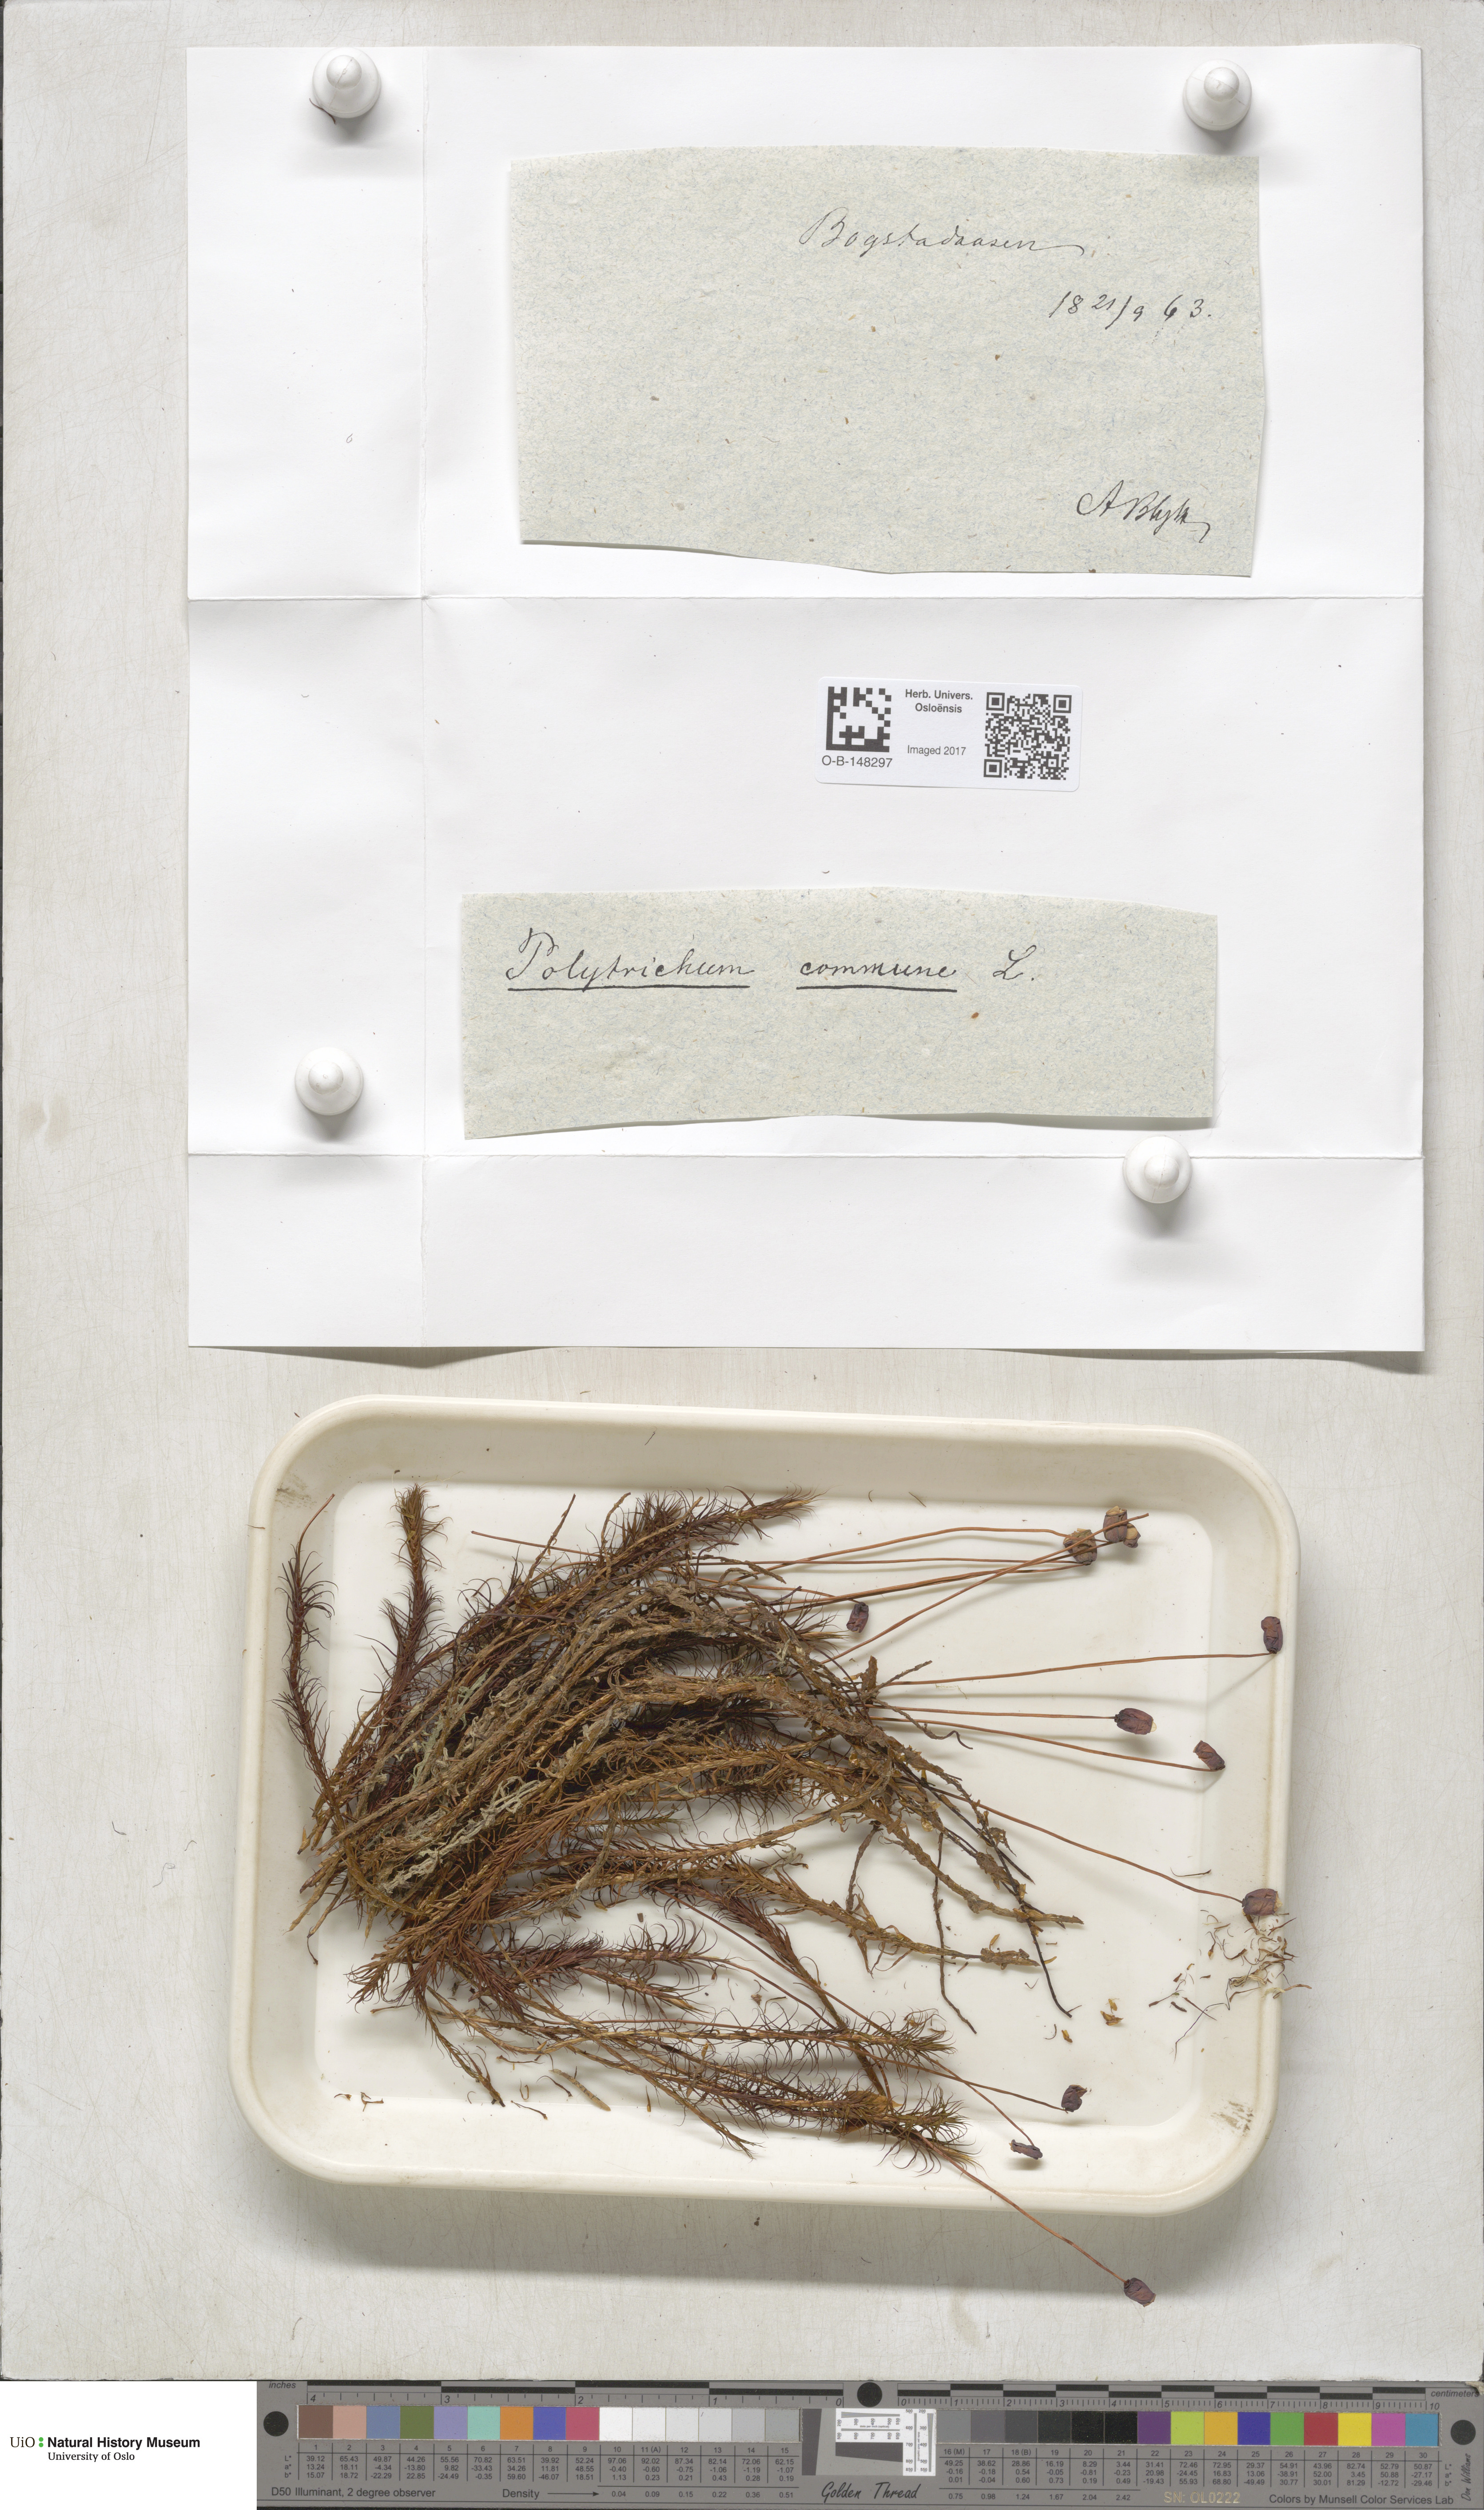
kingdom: Plantae
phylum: Bryophyta
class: Polytrichopsida
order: Polytrichales
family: Polytrichaceae
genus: Polytrichum
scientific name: Polytrichum commune
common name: Common haircap
